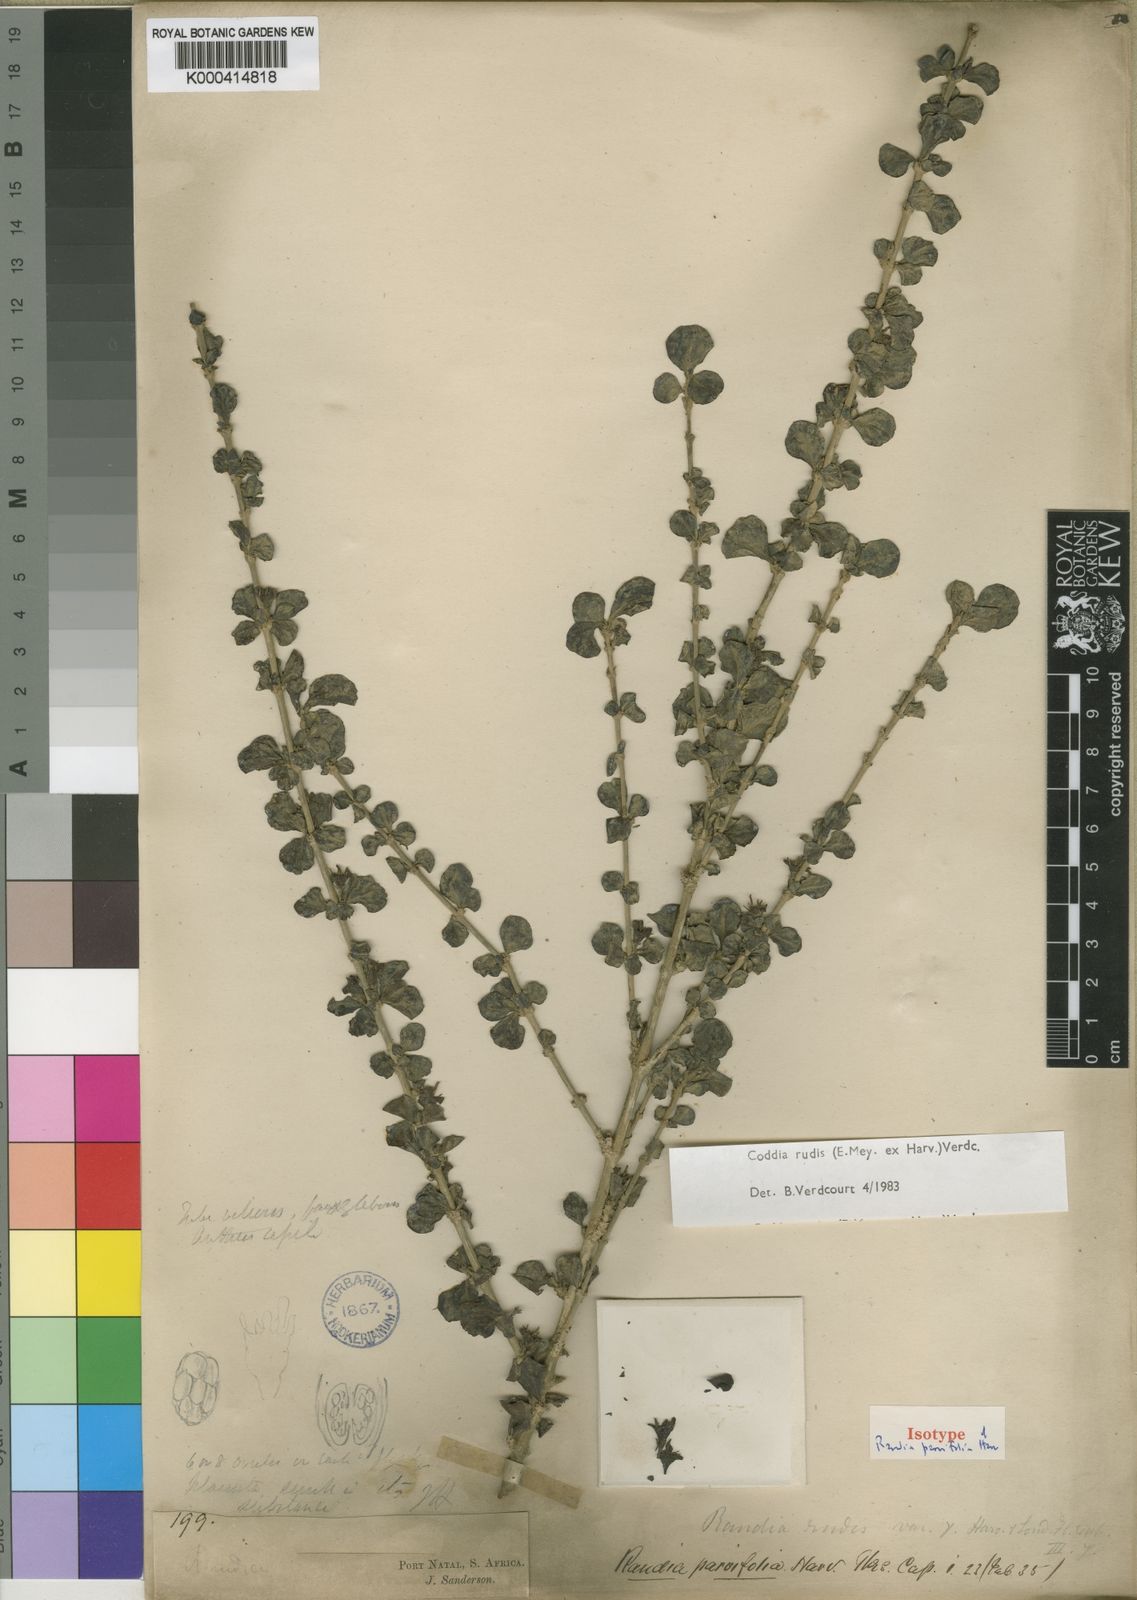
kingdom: Plantae
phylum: Tracheophyta
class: Magnoliopsida
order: Gentianales
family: Rubiaceae
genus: Coddia
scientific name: Coddia rudis
